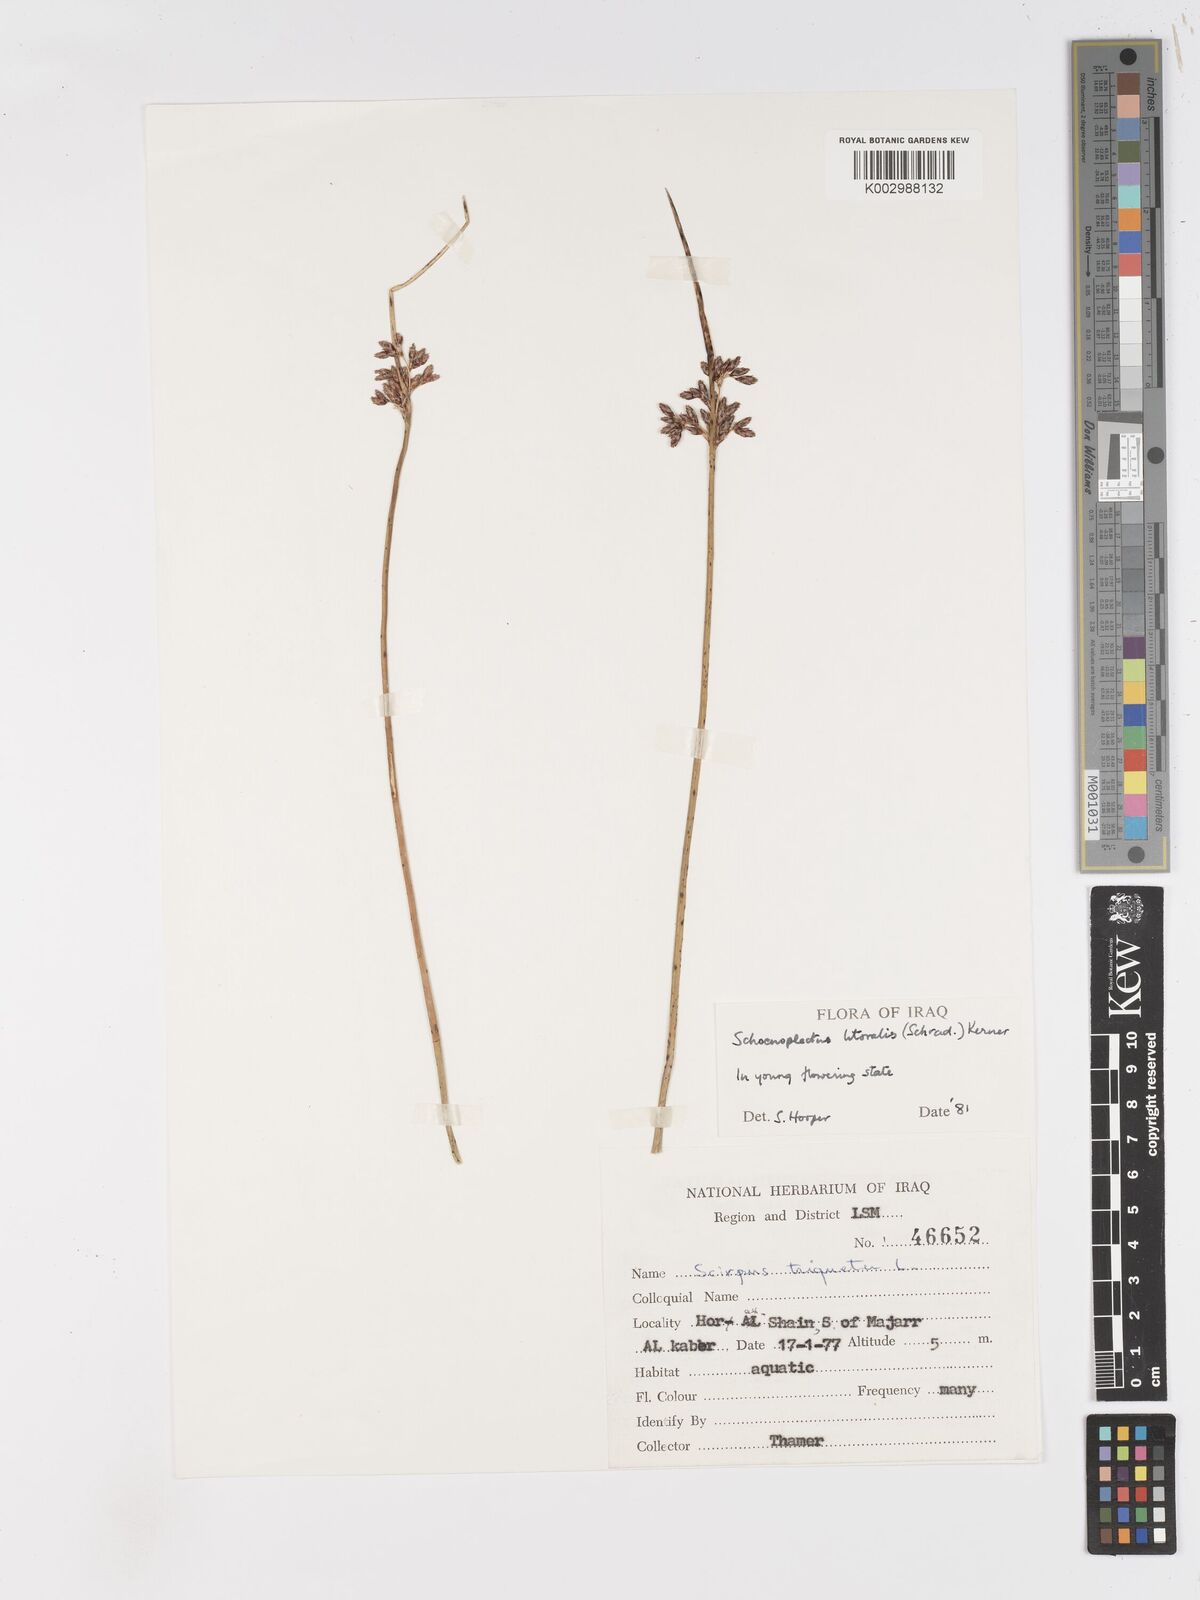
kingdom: Plantae
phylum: Tracheophyta
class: Liliopsida
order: Poales
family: Cyperaceae
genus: Schoenoplectus
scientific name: Schoenoplectus litoralis
